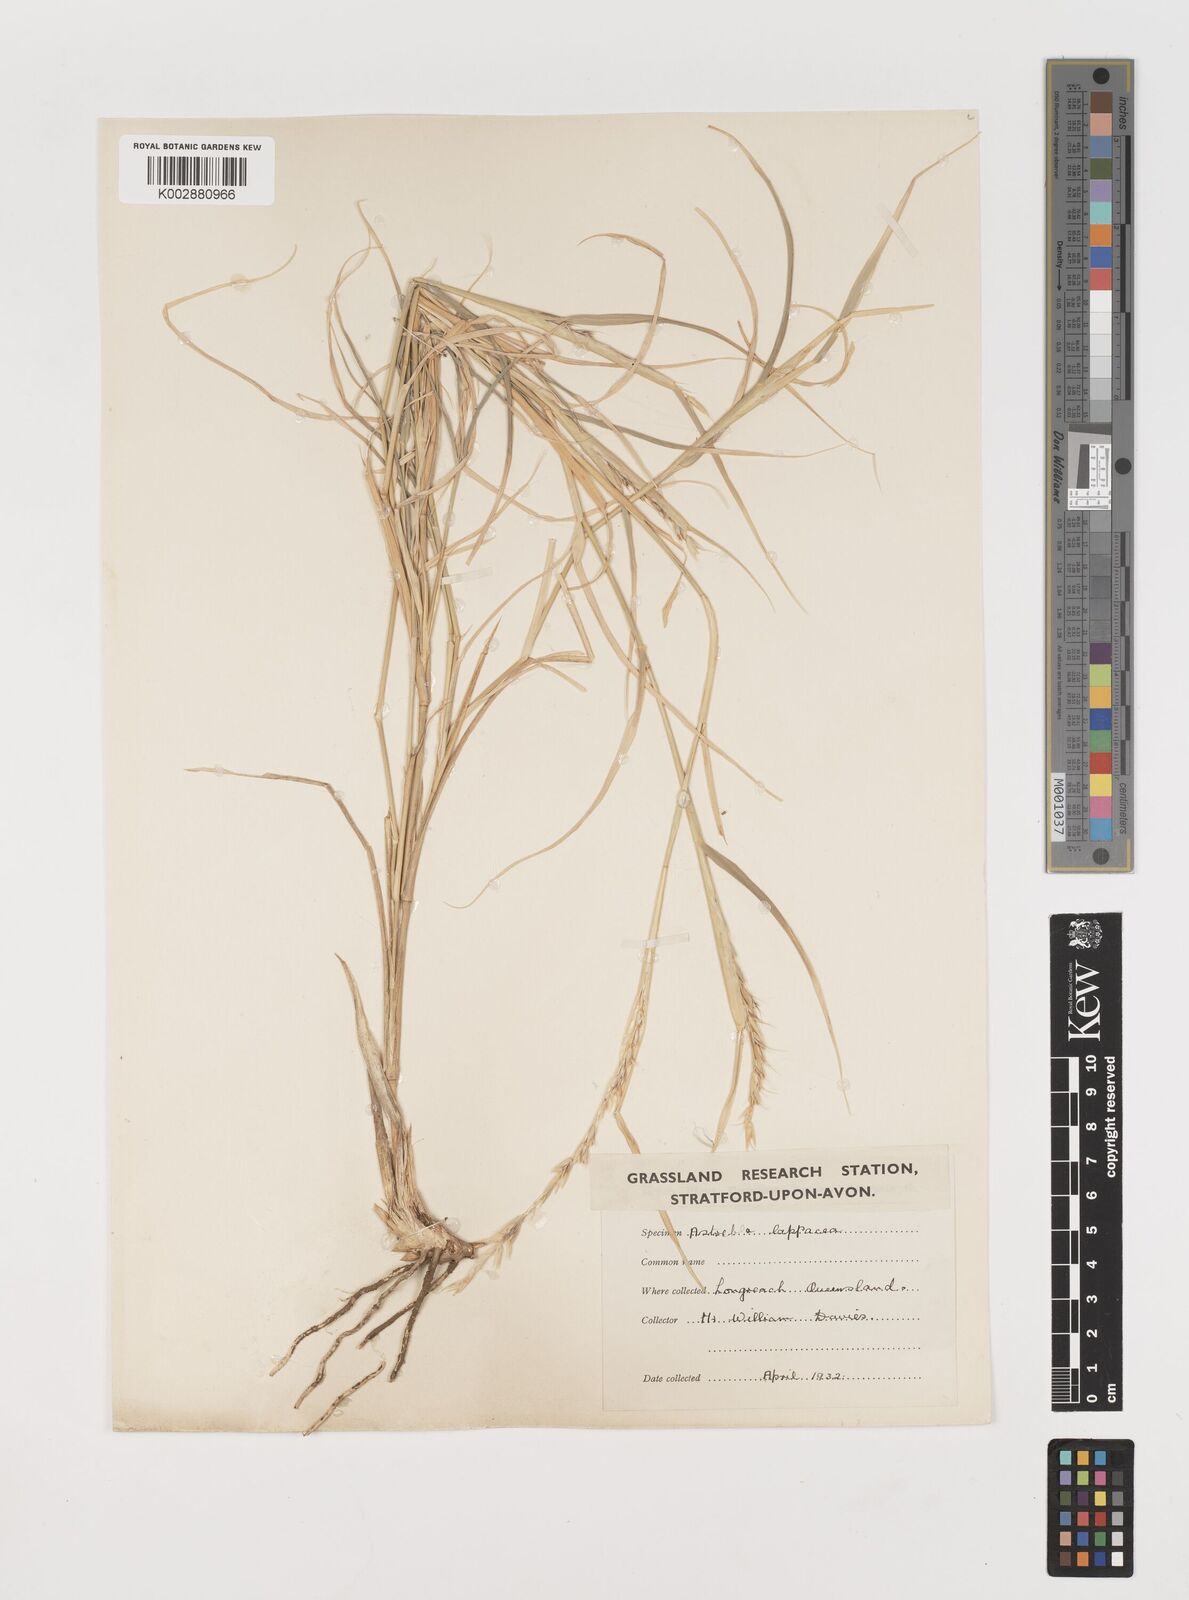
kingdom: Plantae
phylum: Tracheophyta
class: Liliopsida
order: Poales
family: Poaceae
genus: Astrebla
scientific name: Astrebla lappacea
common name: Curly mitchell grass
